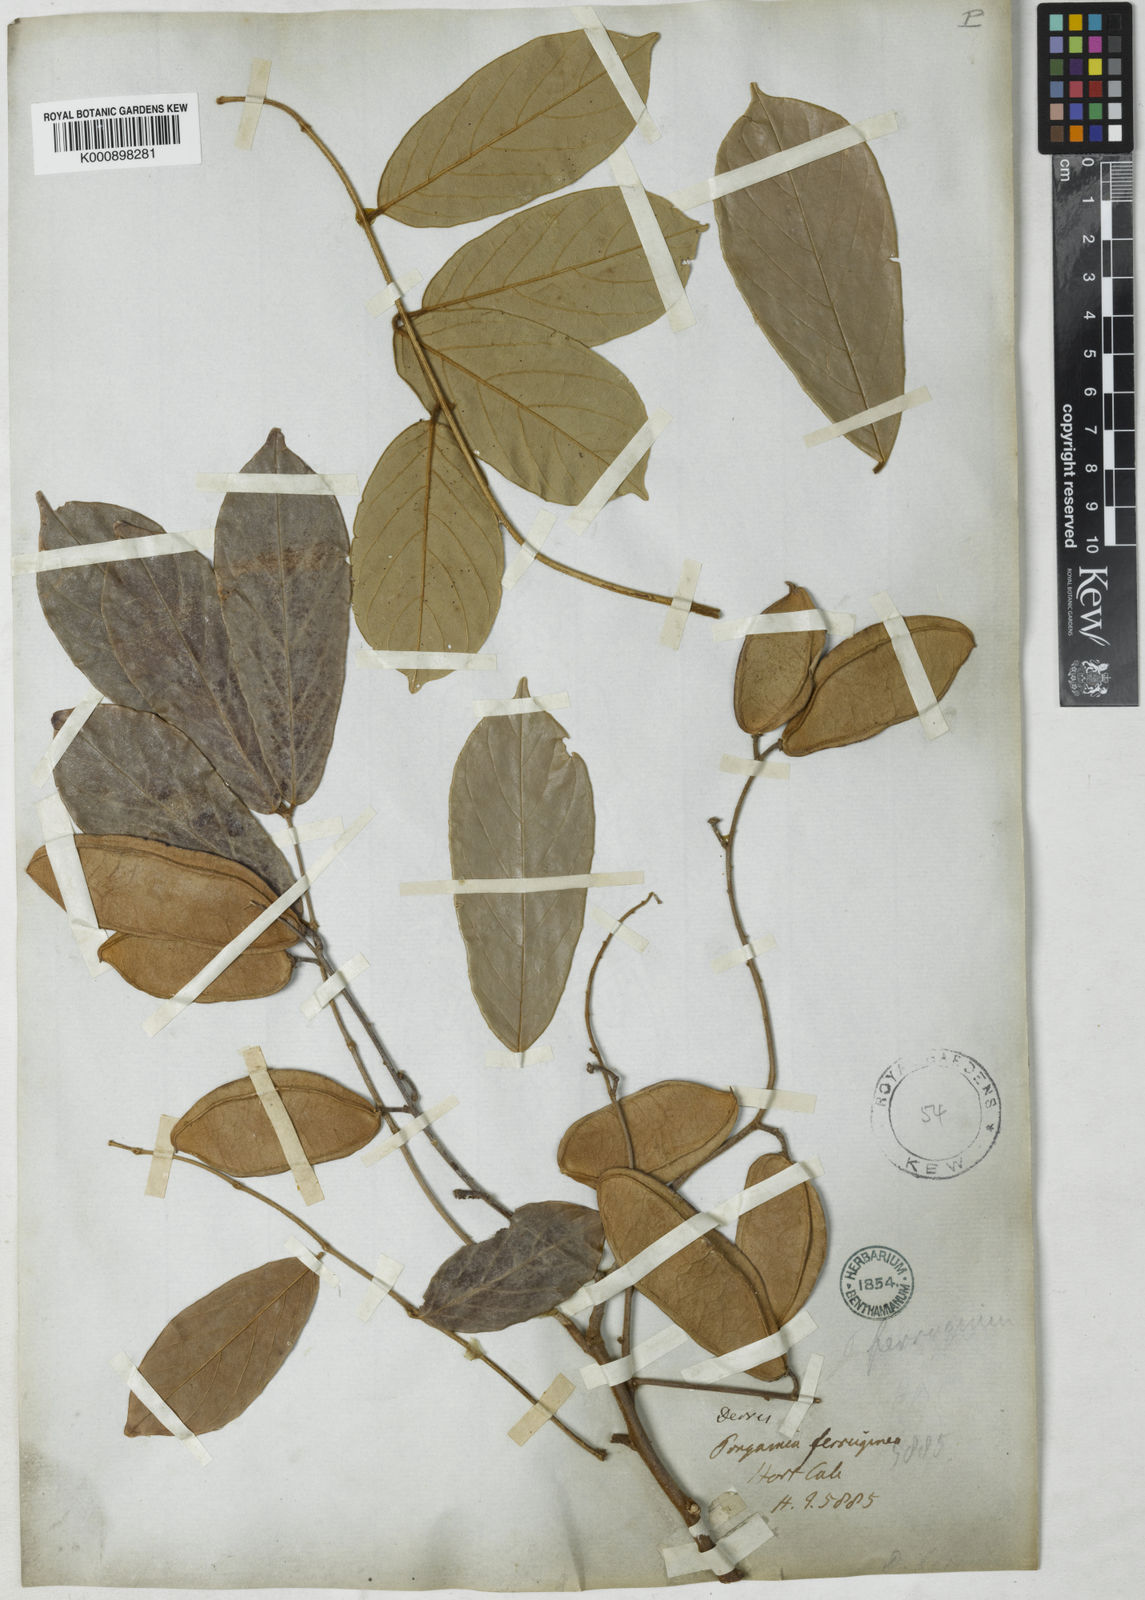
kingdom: Plantae
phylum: Tracheophyta
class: Magnoliopsida
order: Fabales
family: Fabaceae
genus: Derris
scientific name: Derris ferruginea
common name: Indian tubaroot
